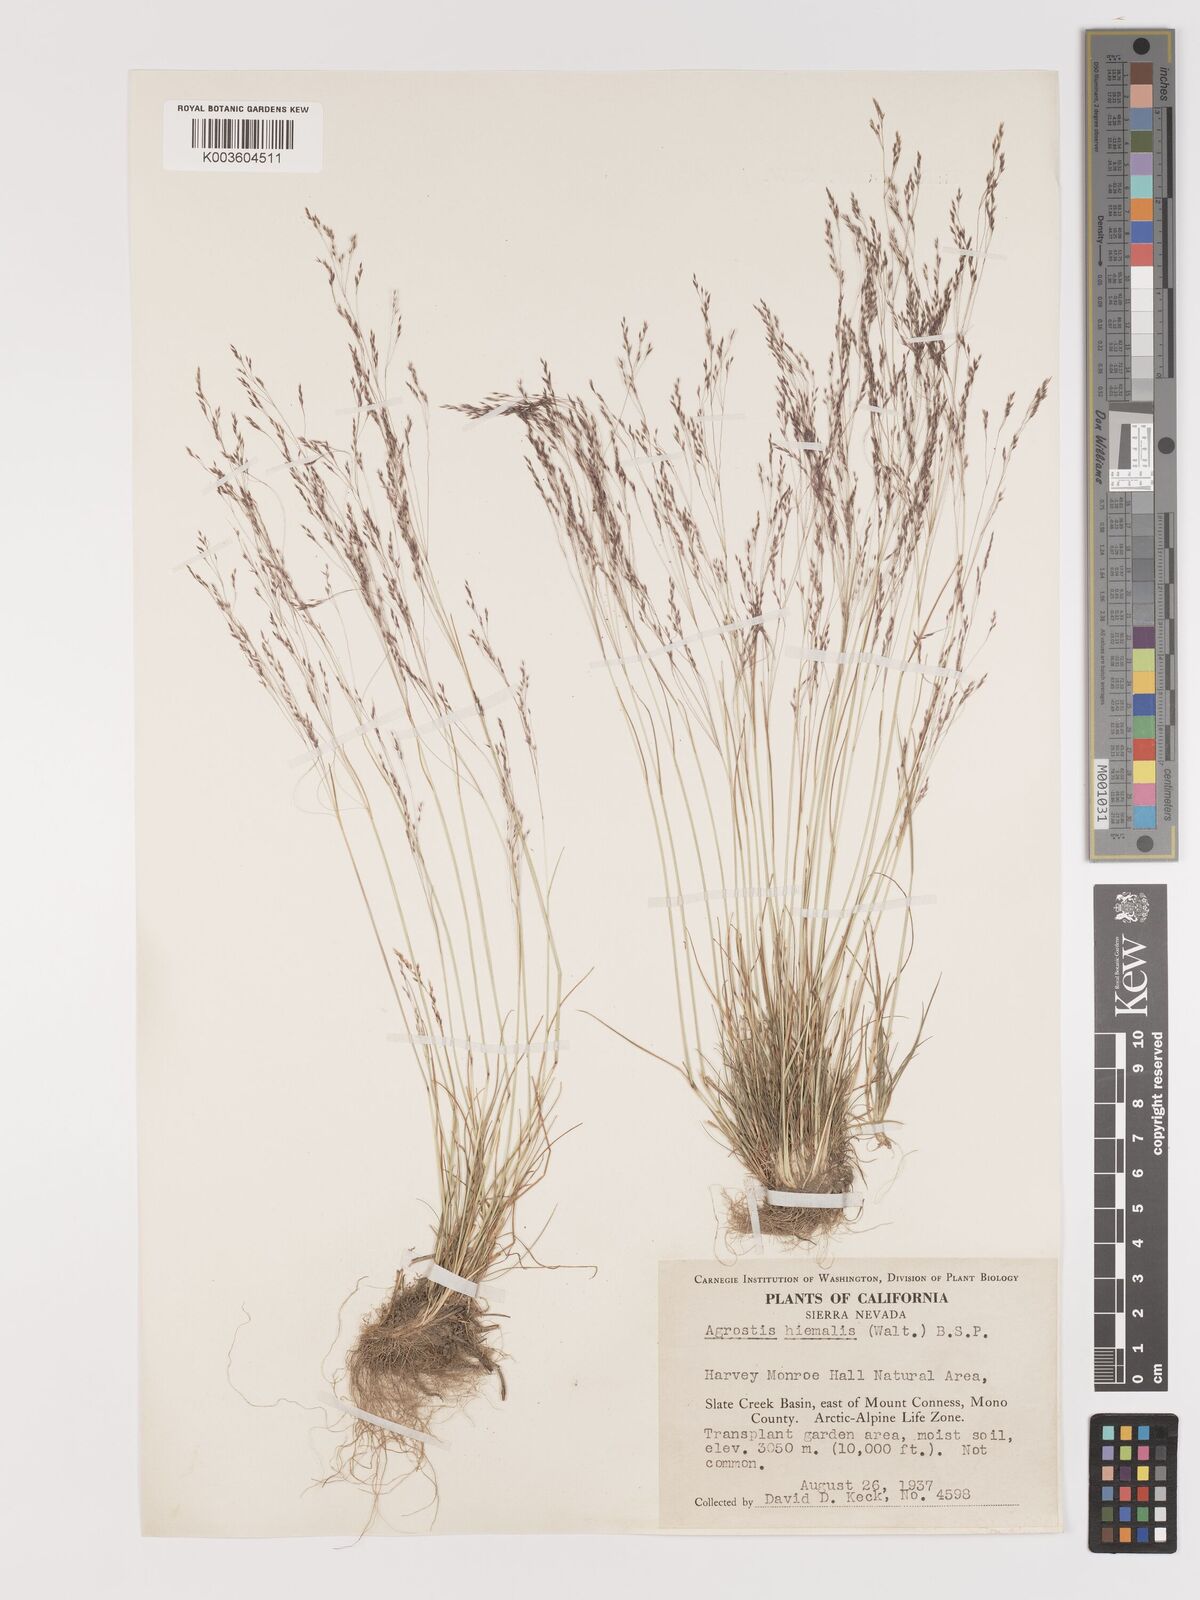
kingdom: Plantae
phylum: Tracheophyta
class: Liliopsida
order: Poales
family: Poaceae
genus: Agrostis
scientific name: Agrostis hyemalis
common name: Small bent
